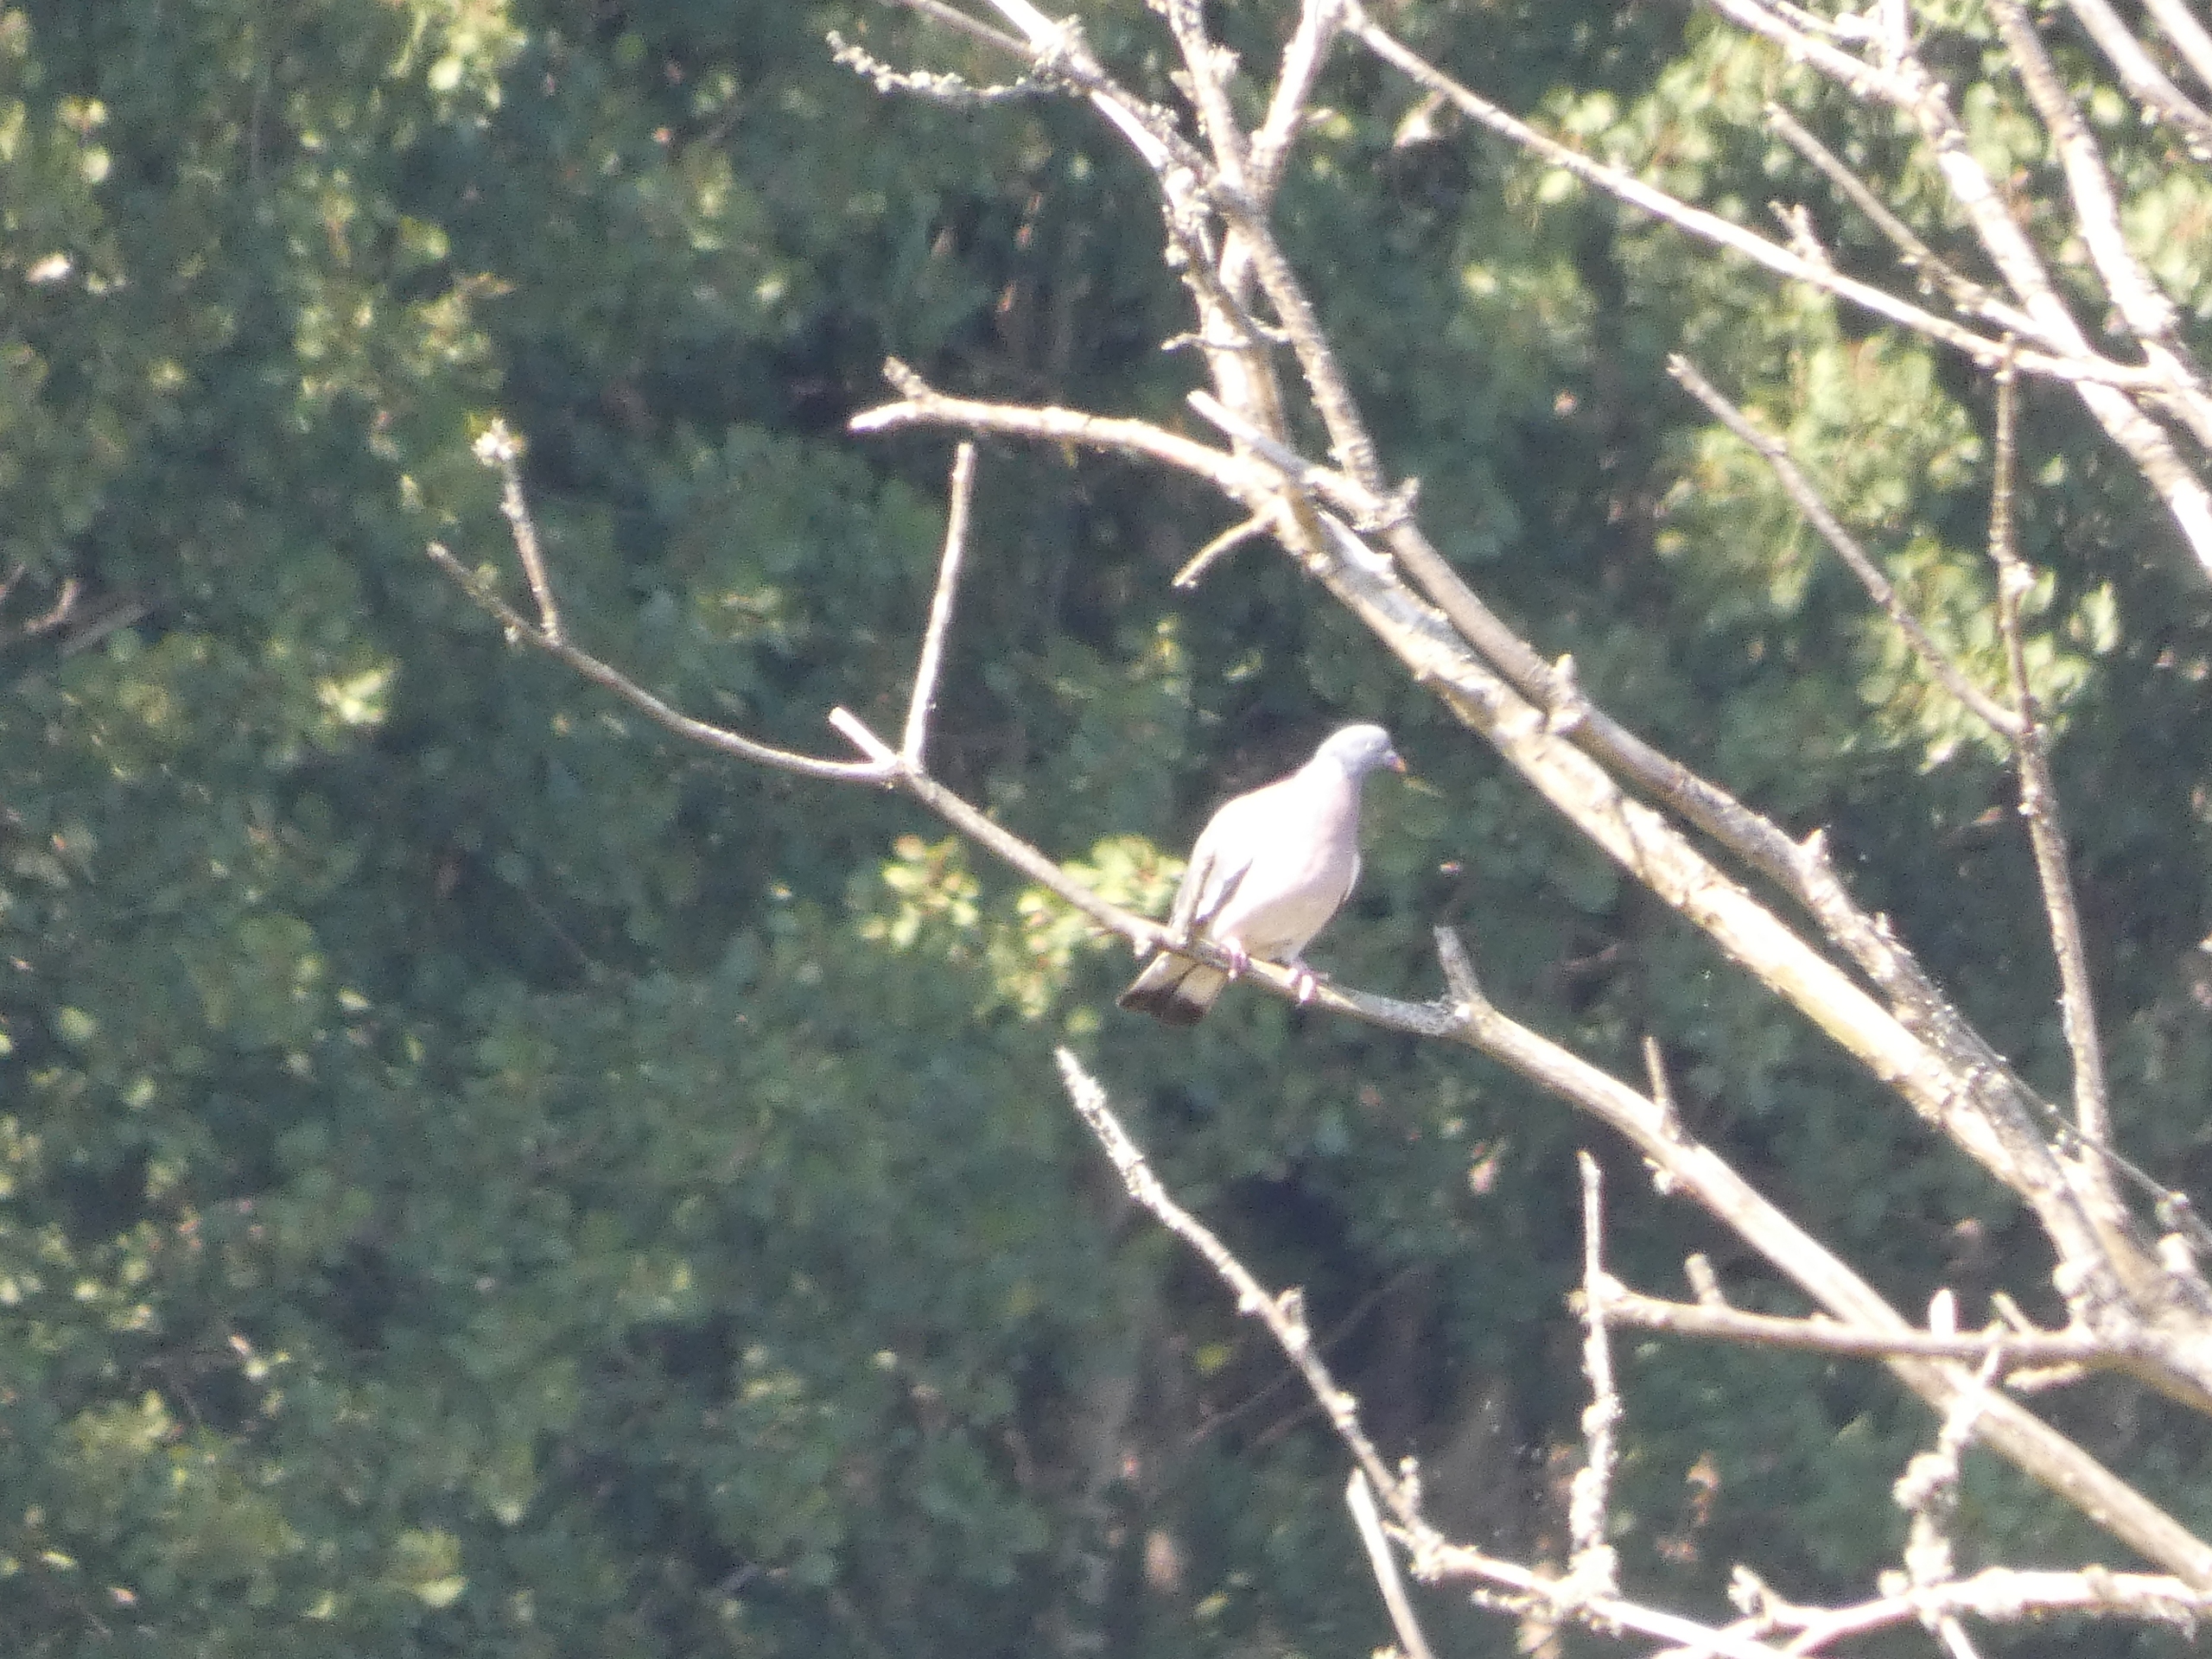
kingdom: Animalia
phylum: Chordata
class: Aves
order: Columbiformes
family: Columbidae
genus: Columba
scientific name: Columba palumbus
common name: Ringdue
